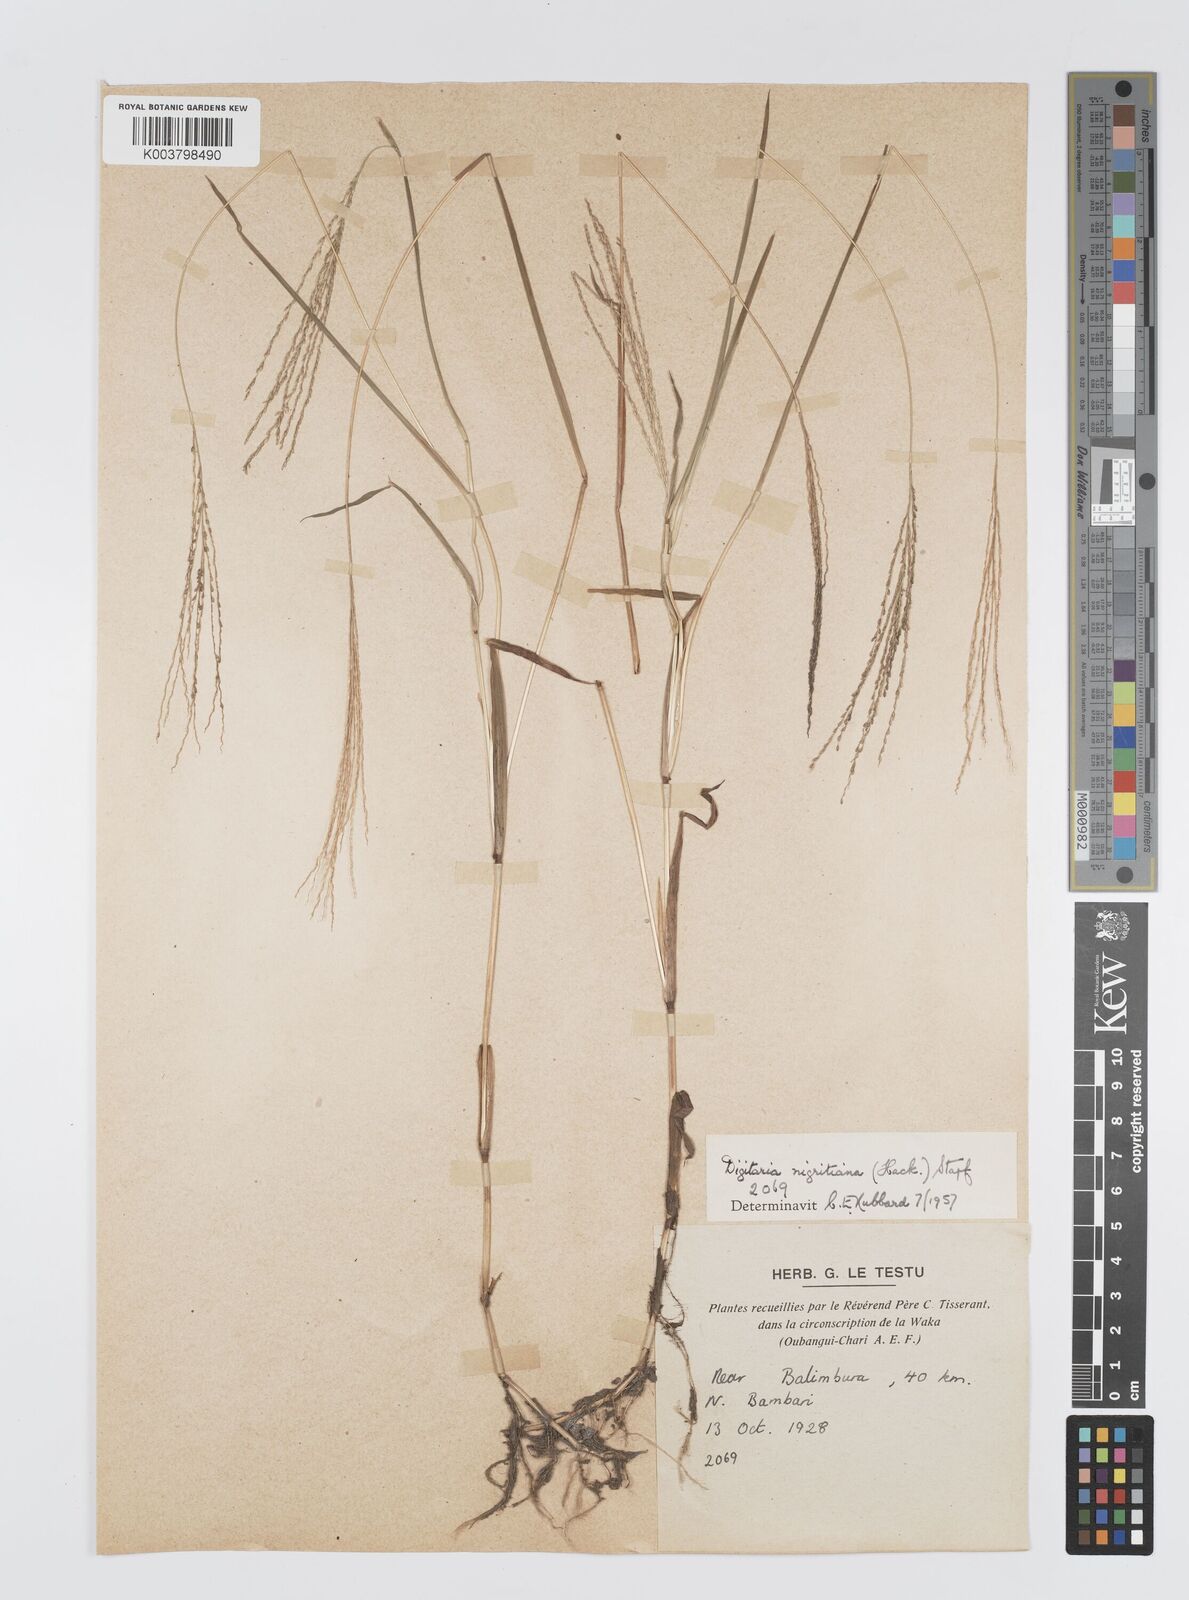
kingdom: Plantae
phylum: Tracheophyta
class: Liliopsida
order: Poales
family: Poaceae
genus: Digitaria
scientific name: Digitaria leptorhachis
